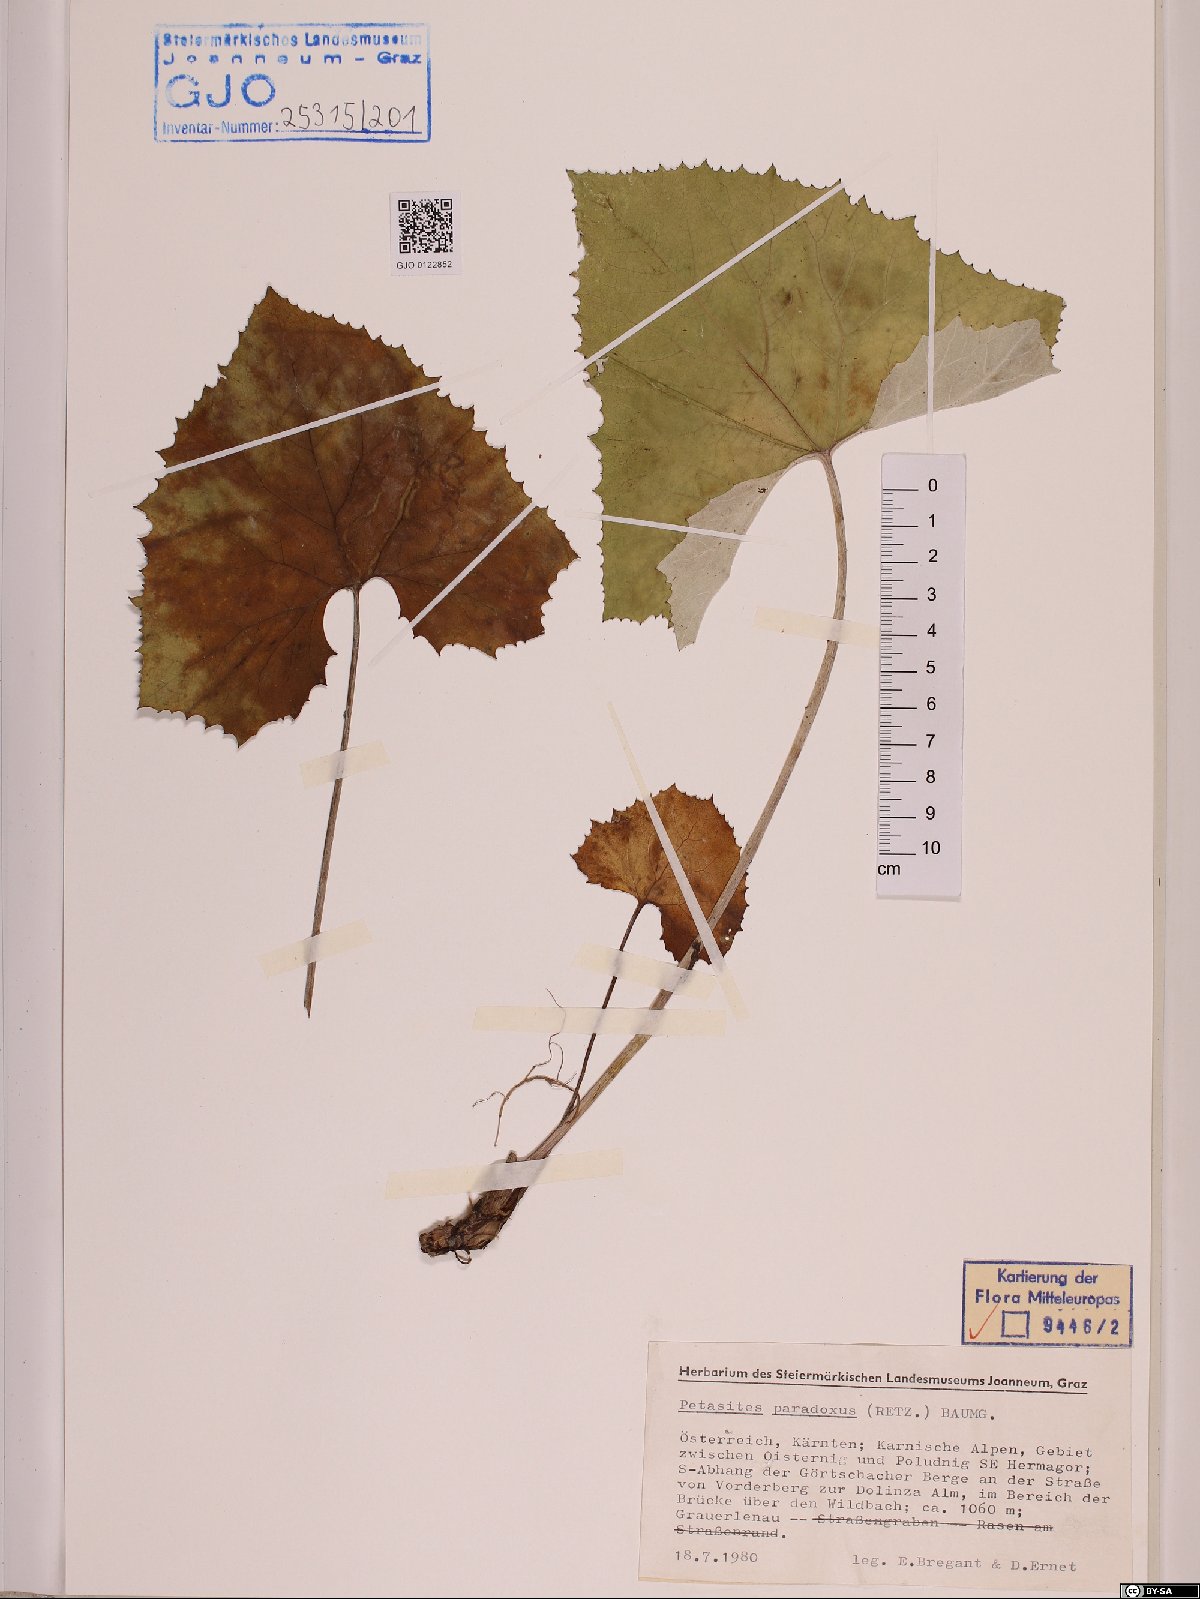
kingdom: Plantae
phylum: Tracheophyta
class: Magnoliopsida
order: Asterales
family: Asteraceae
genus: Petasites
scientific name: Petasites paradoxus
